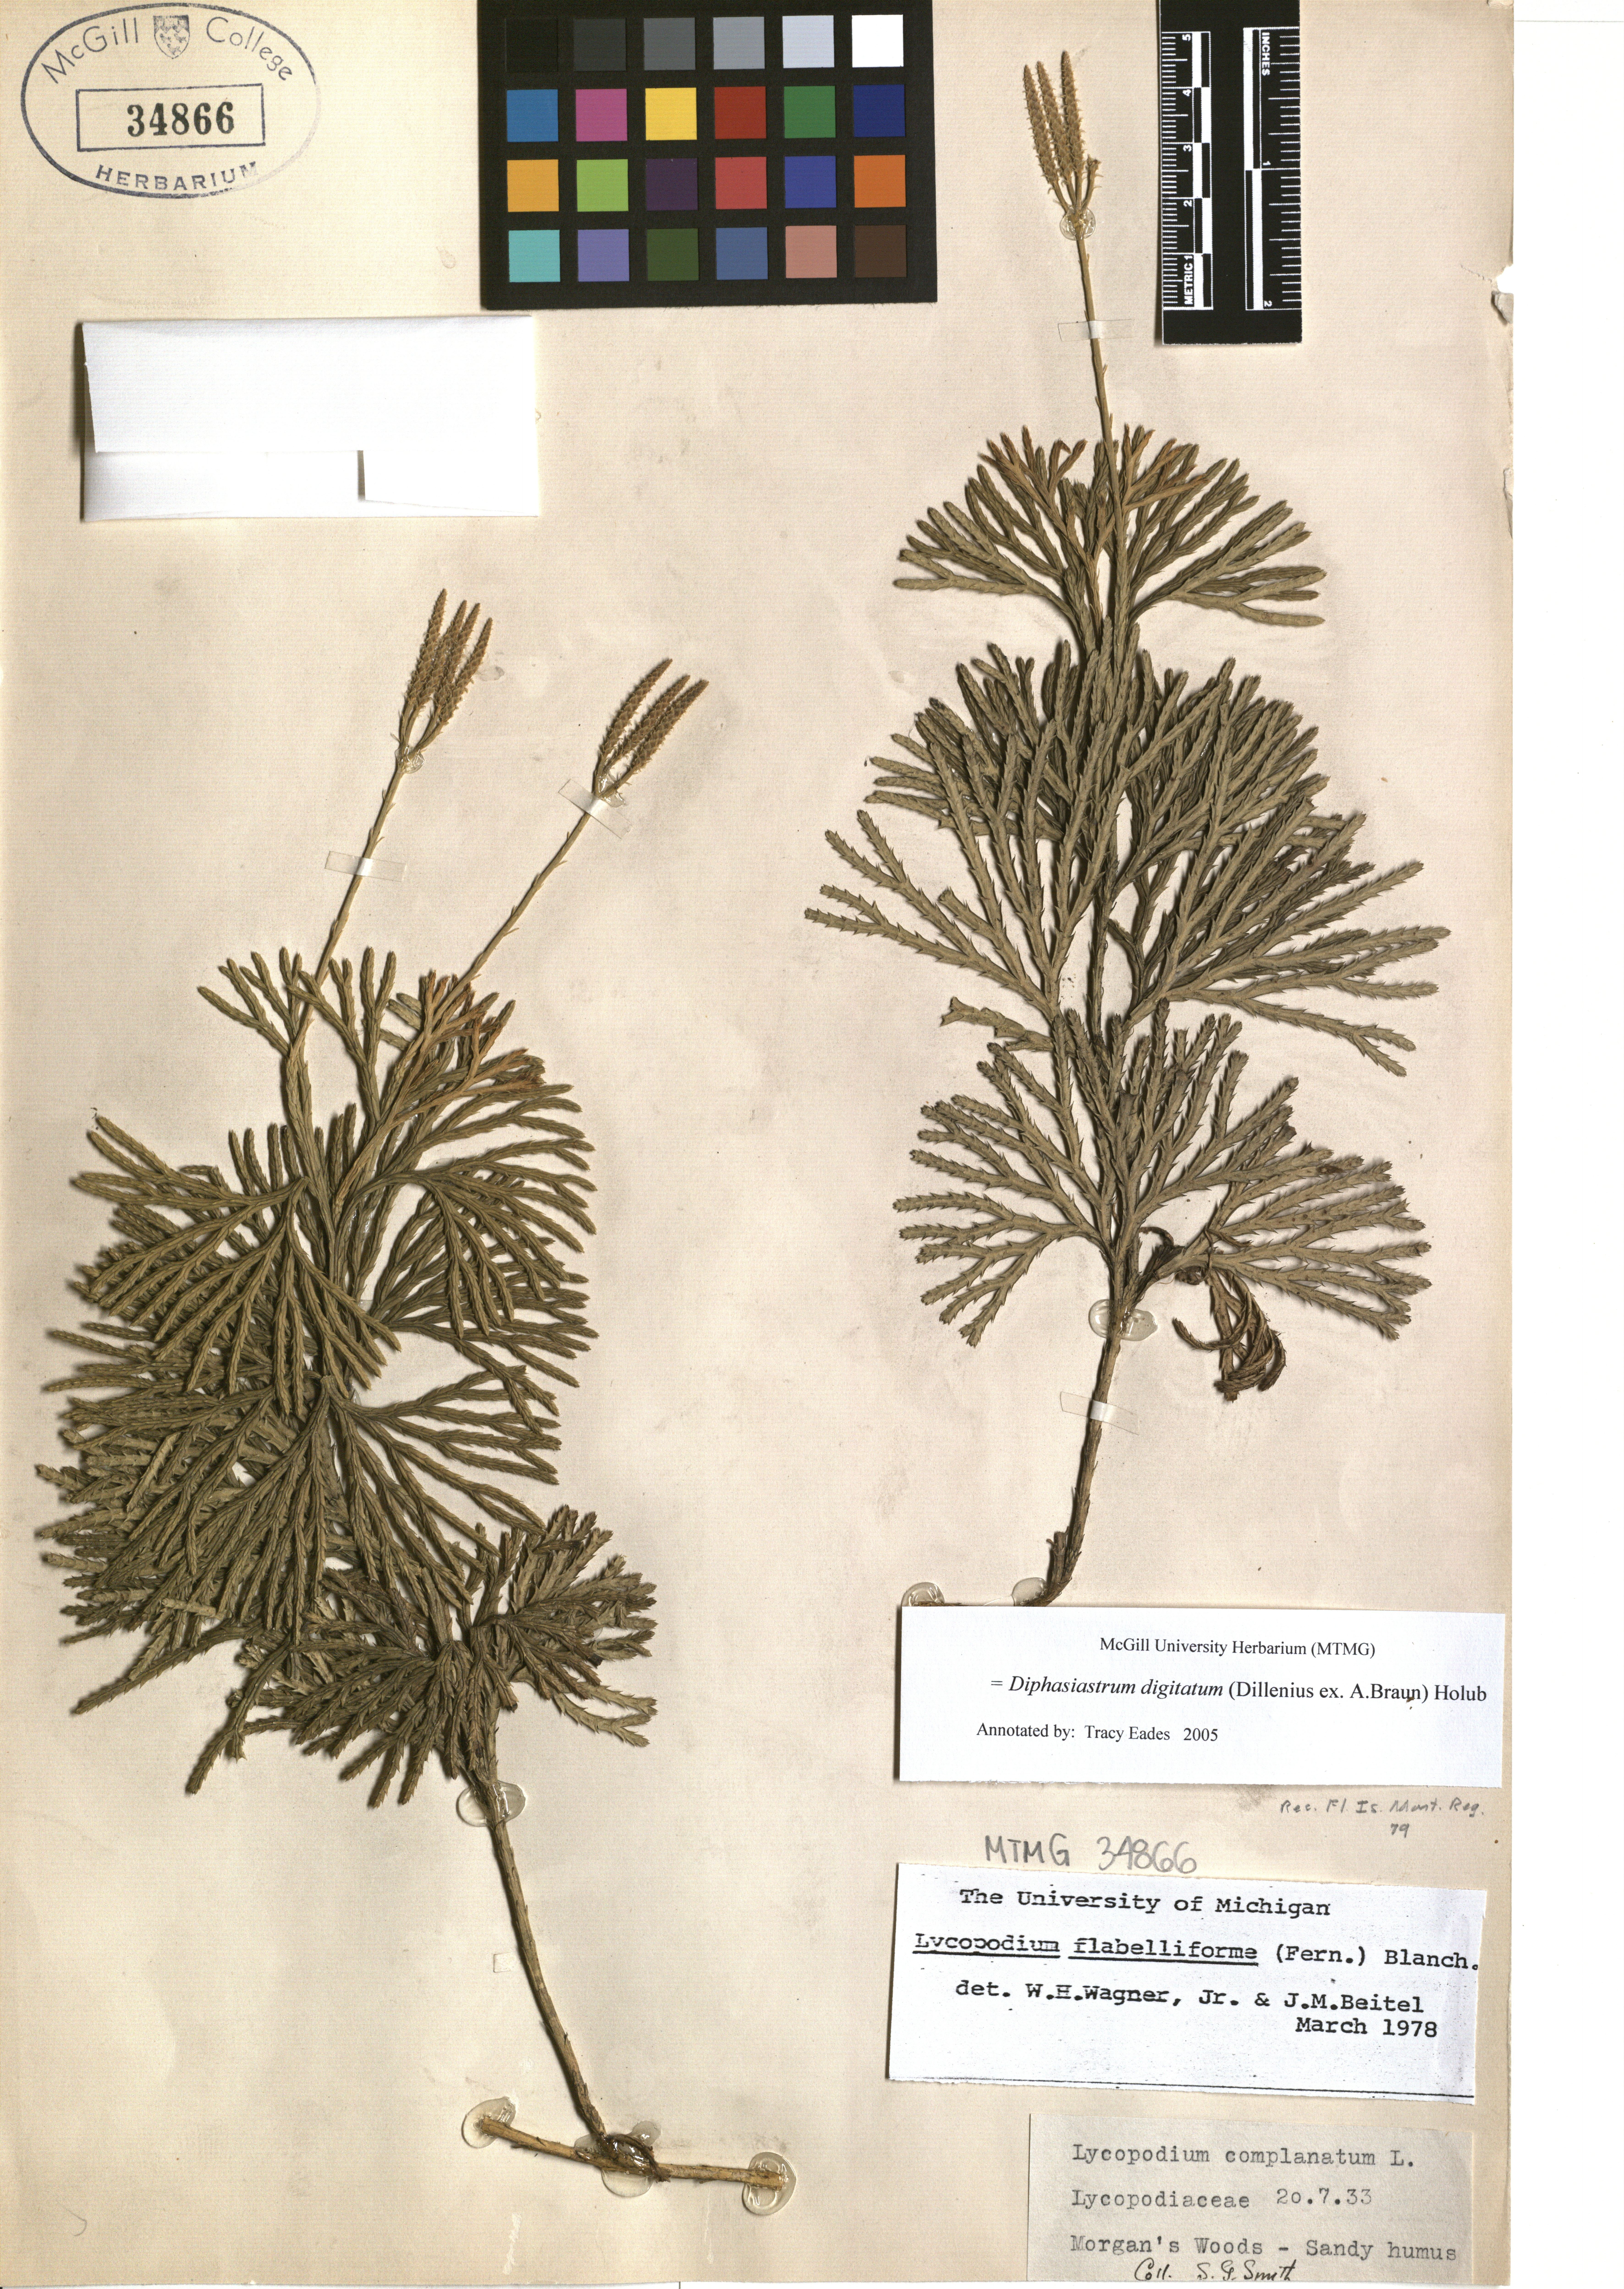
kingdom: Plantae
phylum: Tracheophyta
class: Lycopodiopsida
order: Lycopodiales
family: Lycopodiaceae
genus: Diphasiastrum
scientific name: Diphasiastrum digitatum
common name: Southern running-pine
